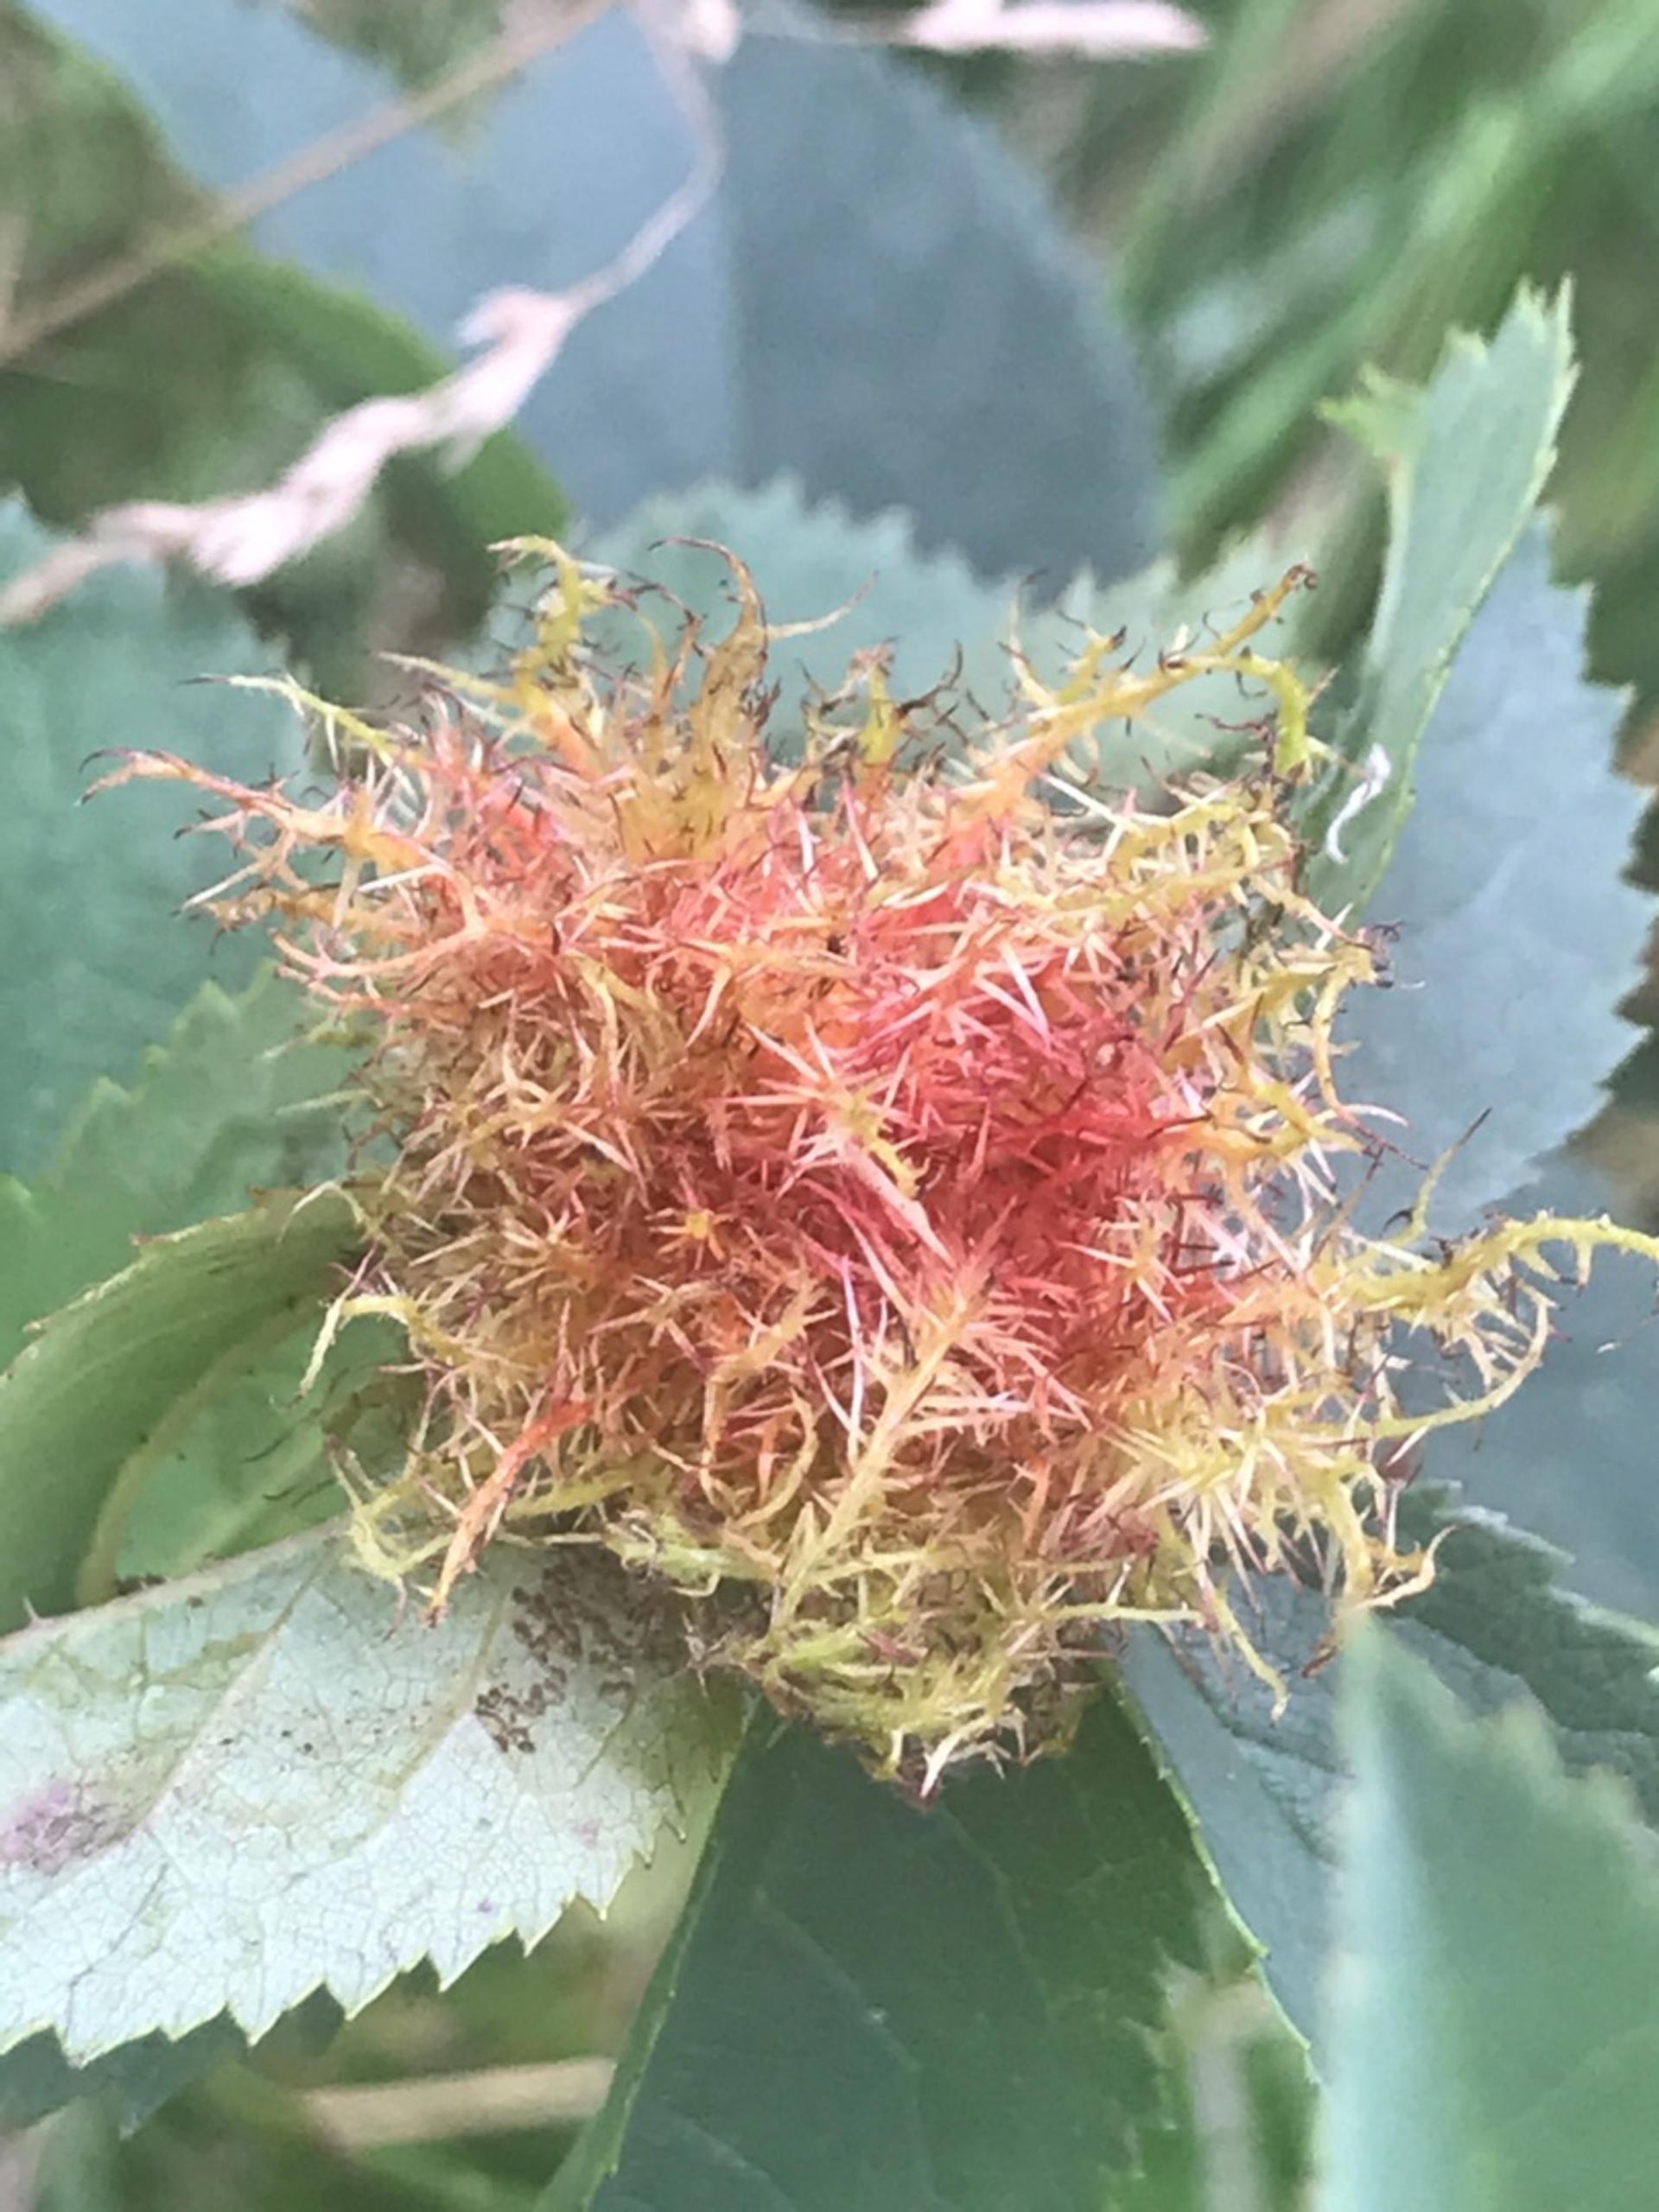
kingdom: Animalia
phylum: Arthropoda
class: Insecta
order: Hymenoptera
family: Cynipidae
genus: Diplolepis
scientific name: Diplolepis rosae
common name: Bedeguargalhveps
